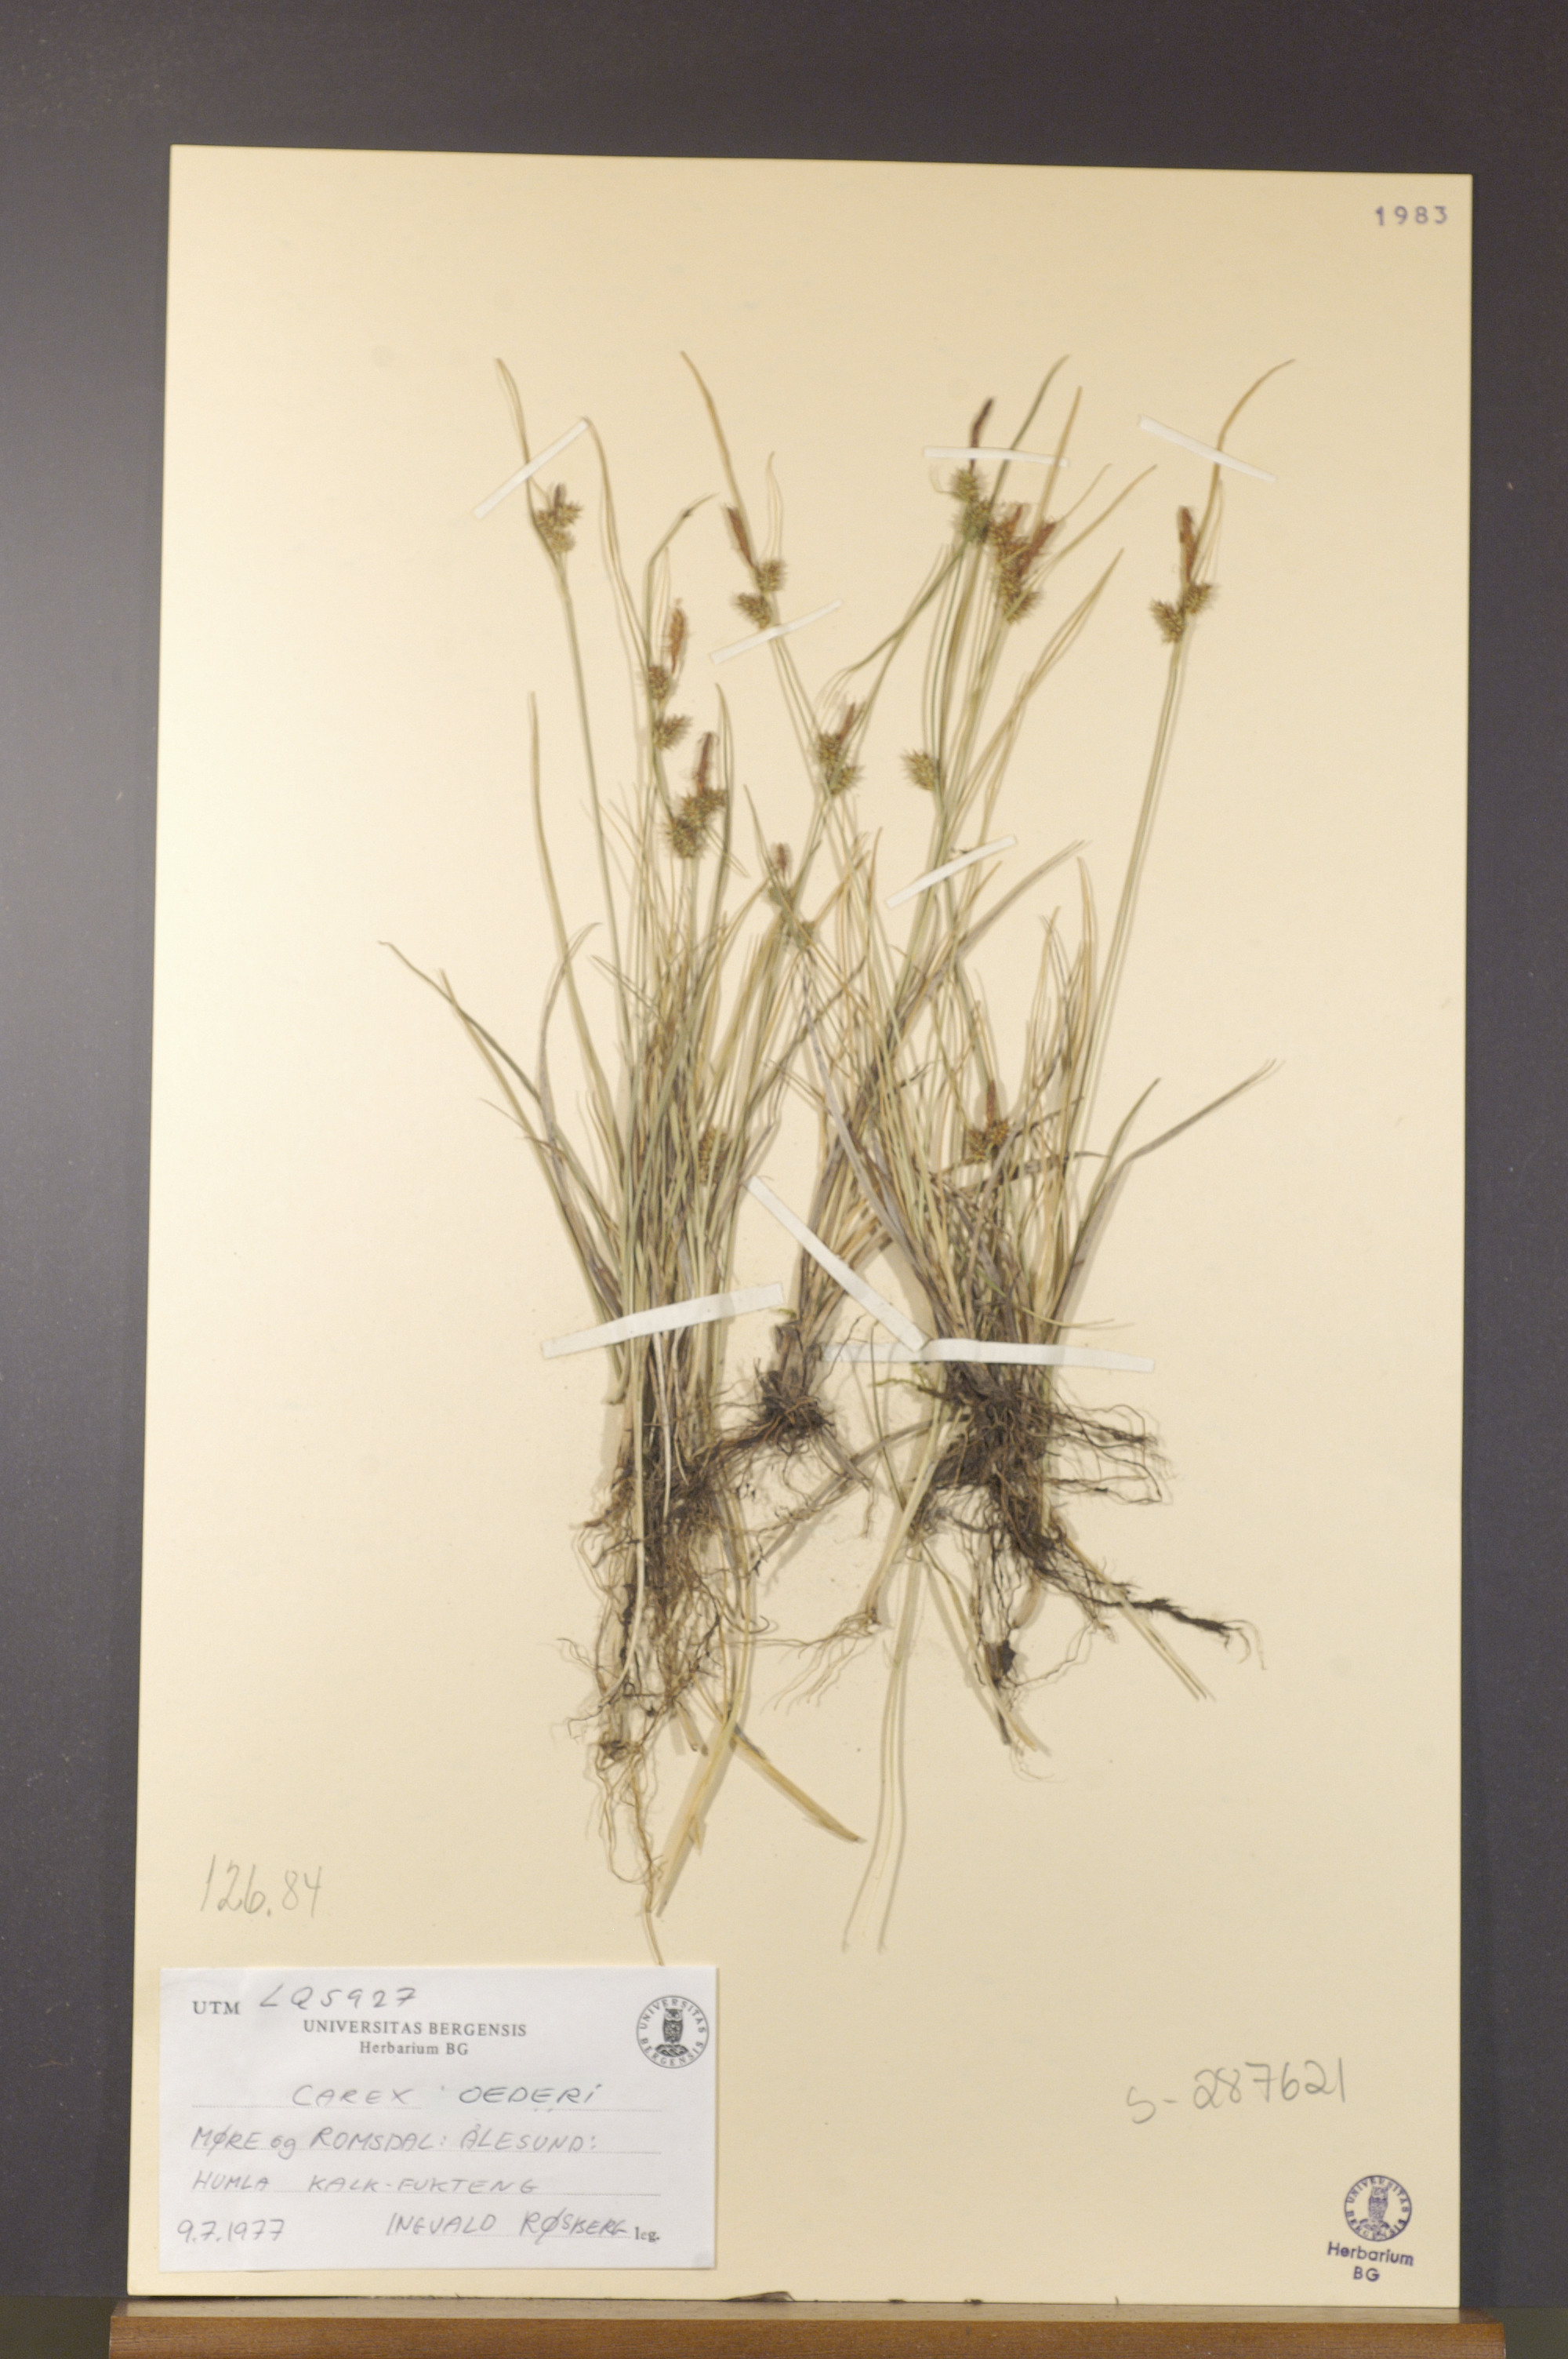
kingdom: Plantae
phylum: Tracheophyta
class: Liliopsida
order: Poales
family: Cyperaceae
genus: Carex
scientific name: Carex oederi
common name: Common & small-fruited yellow-sedge
